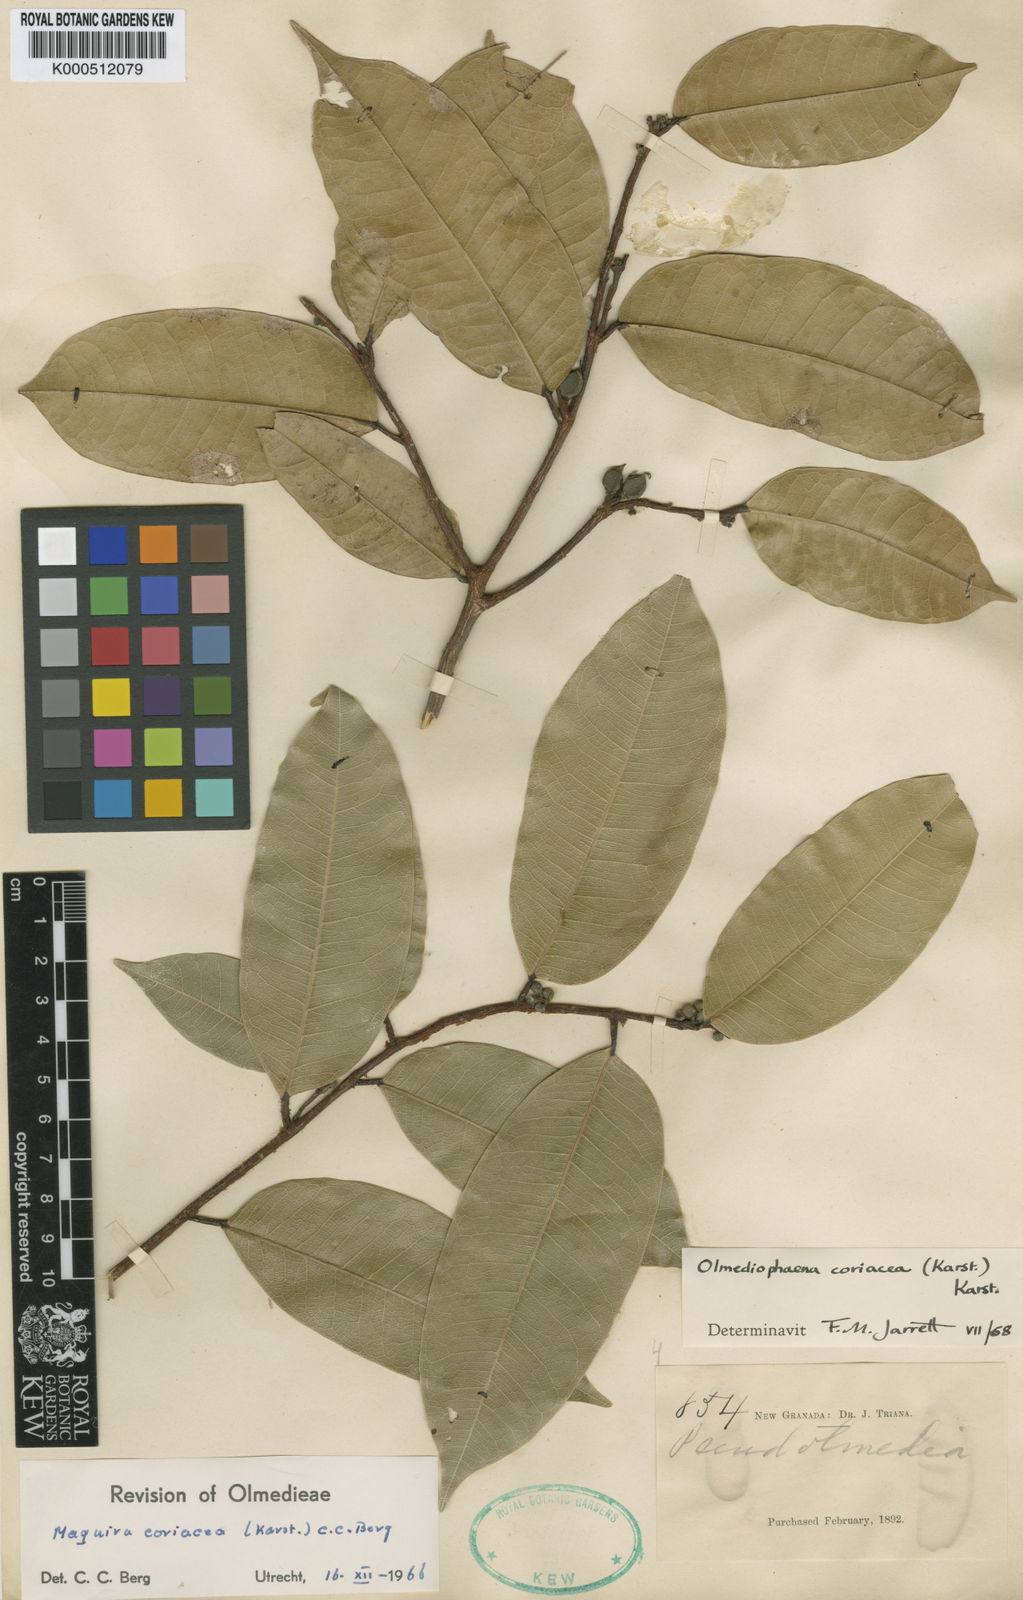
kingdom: Plantae
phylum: Tracheophyta
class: Magnoliopsida
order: Rosales
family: Moraceae
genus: Maquira
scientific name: Maquira coriacea
